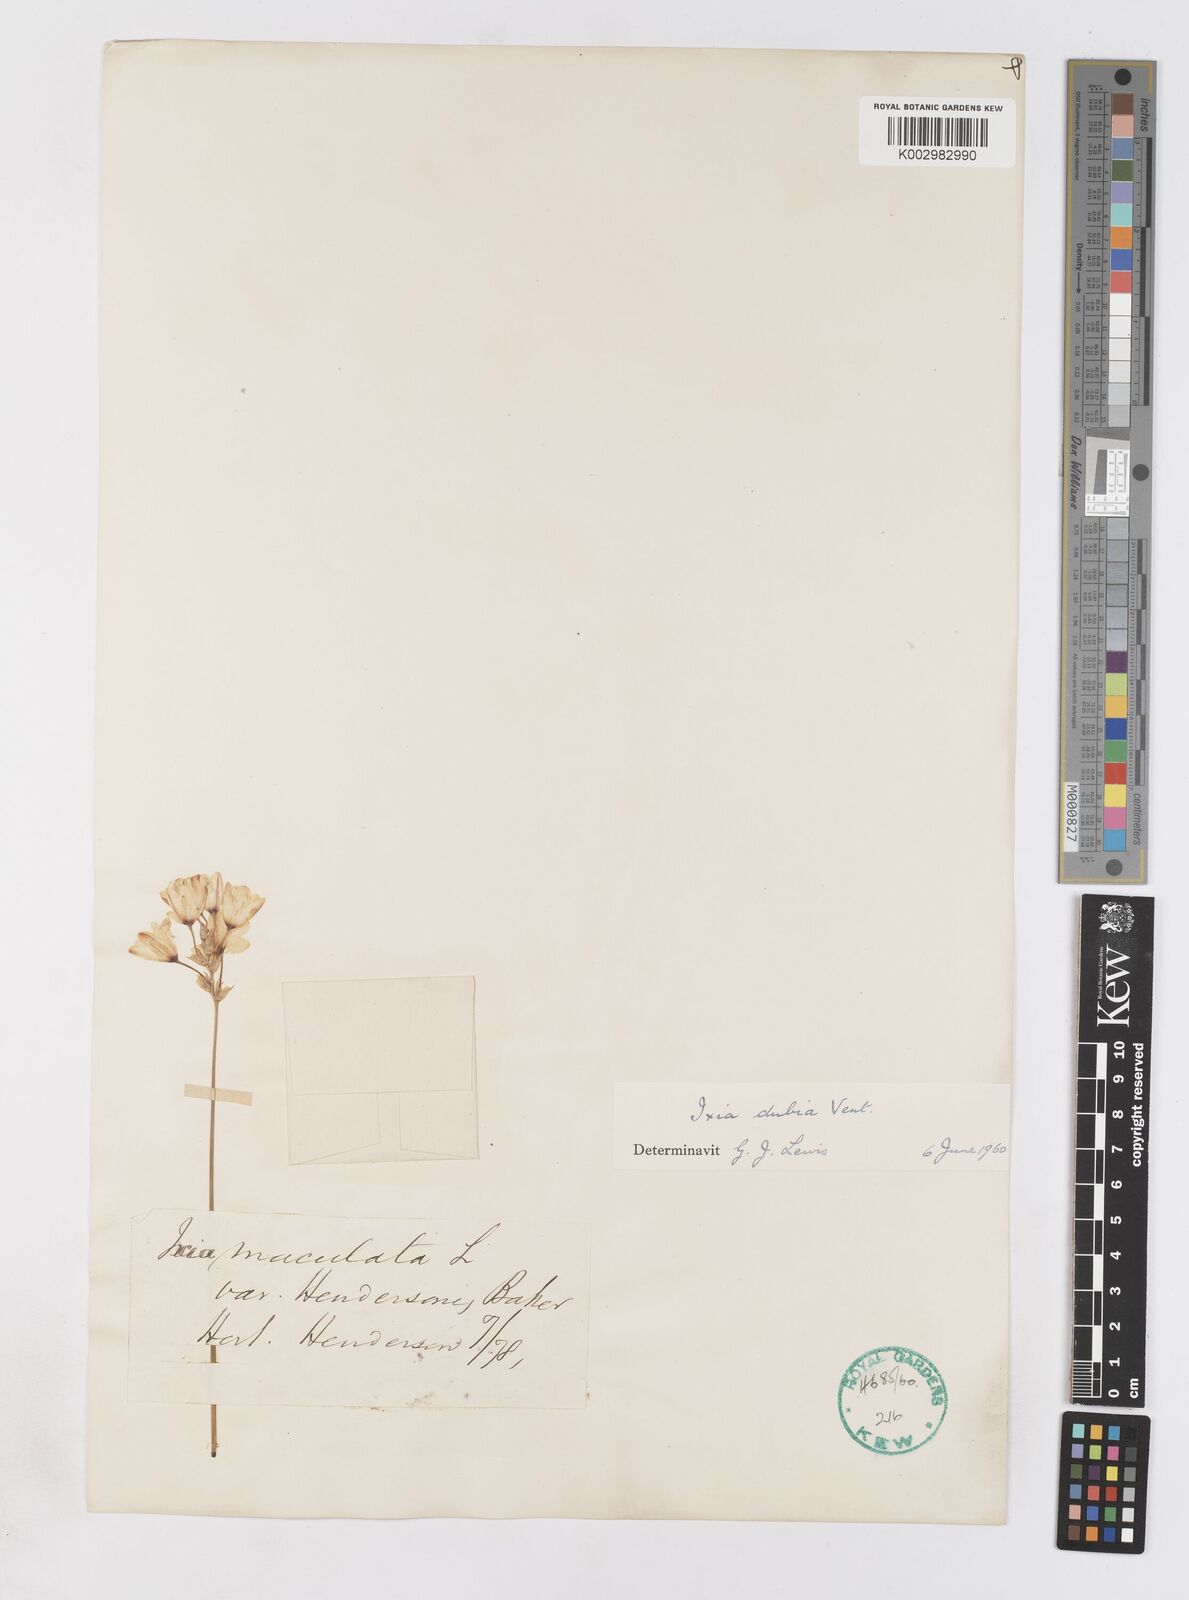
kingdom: Plantae
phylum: Tracheophyta
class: Liliopsida
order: Asparagales
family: Iridaceae
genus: Ixia
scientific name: Ixia dubia
